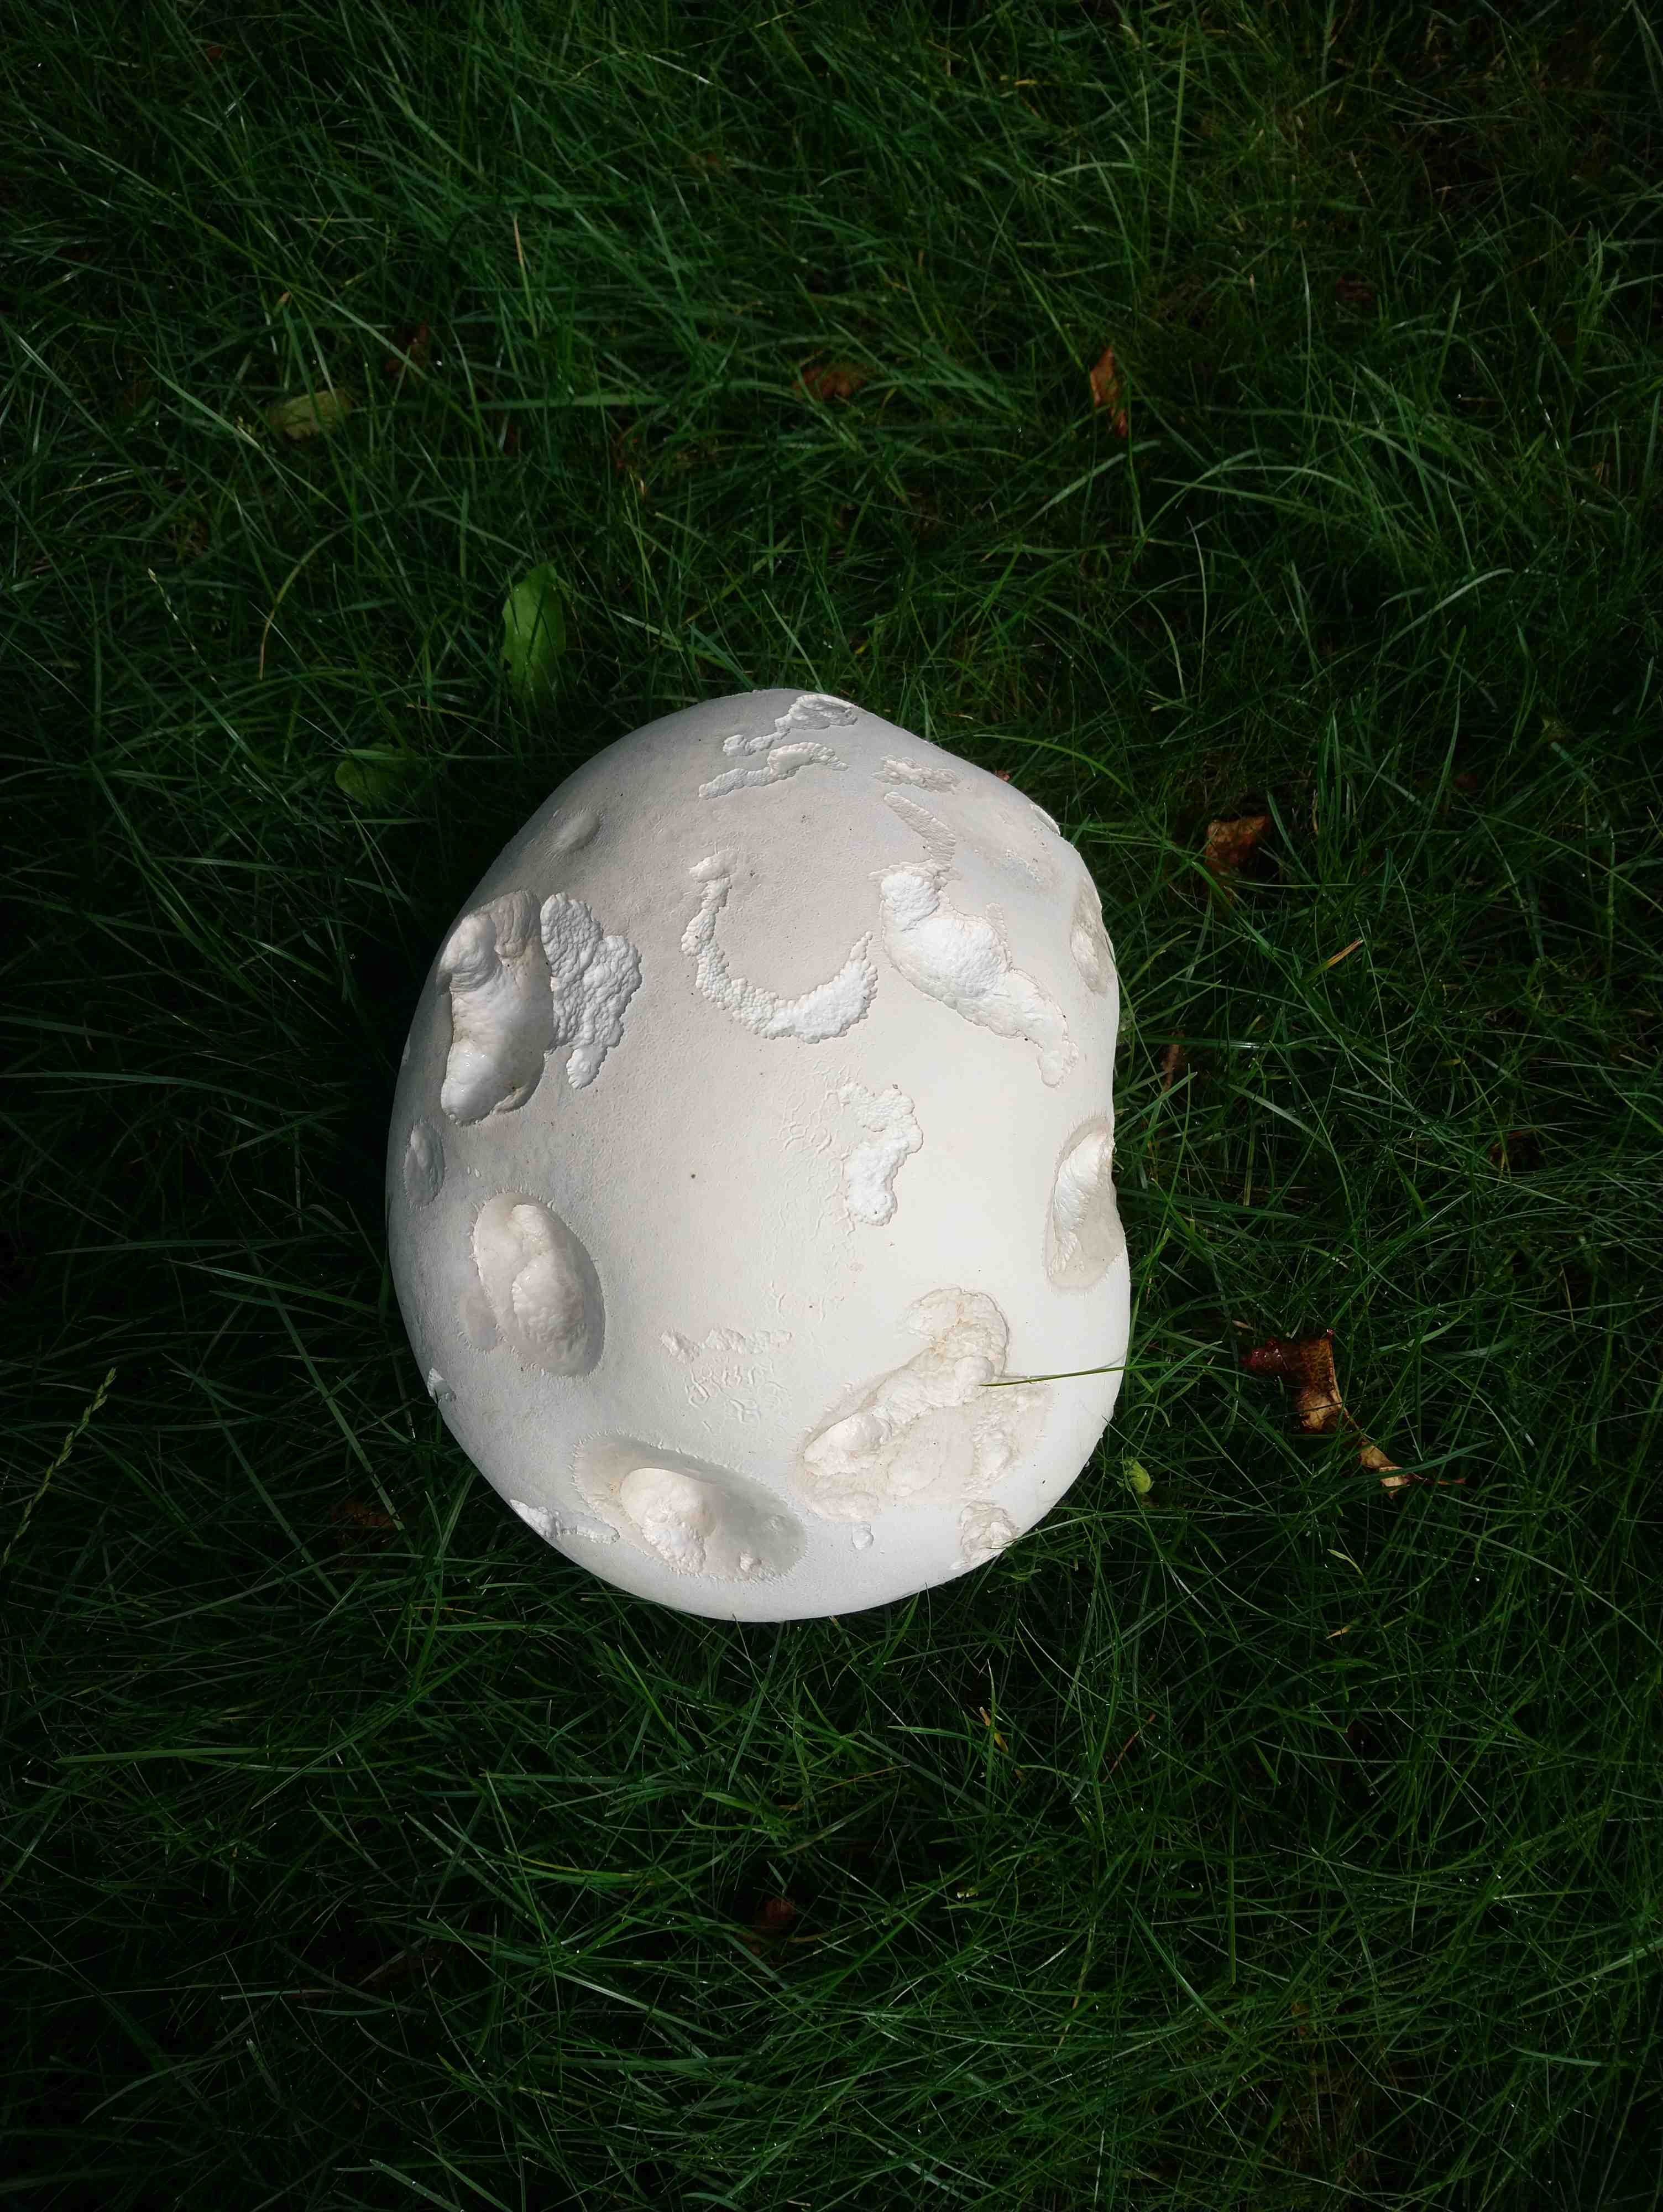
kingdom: Fungi
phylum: Basidiomycota
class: Agaricomycetes
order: Agaricales
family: Lycoperdaceae
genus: Calvatia
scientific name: Calvatia gigantea
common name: kæmpestøvbold
